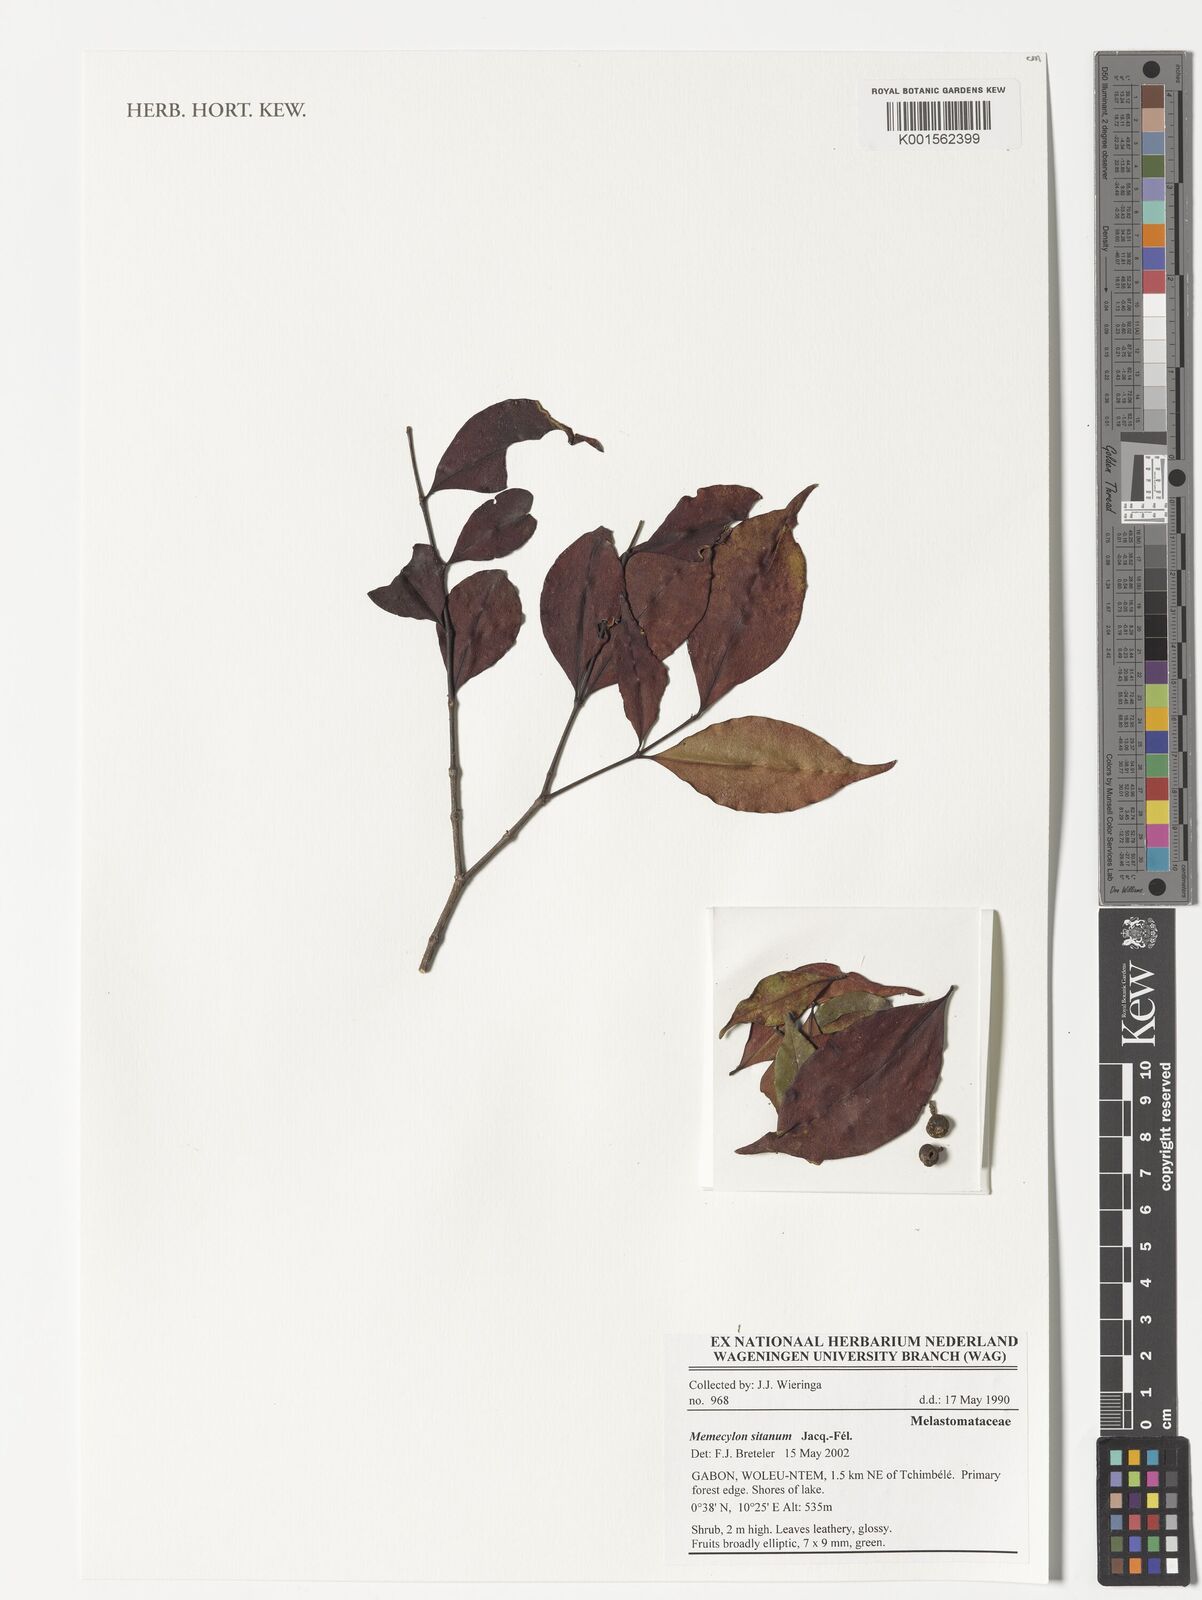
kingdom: Plantae
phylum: Tracheophyta
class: Magnoliopsida
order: Myrtales
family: Melastomataceae
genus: Memecylon
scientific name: Memecylon sitanum
